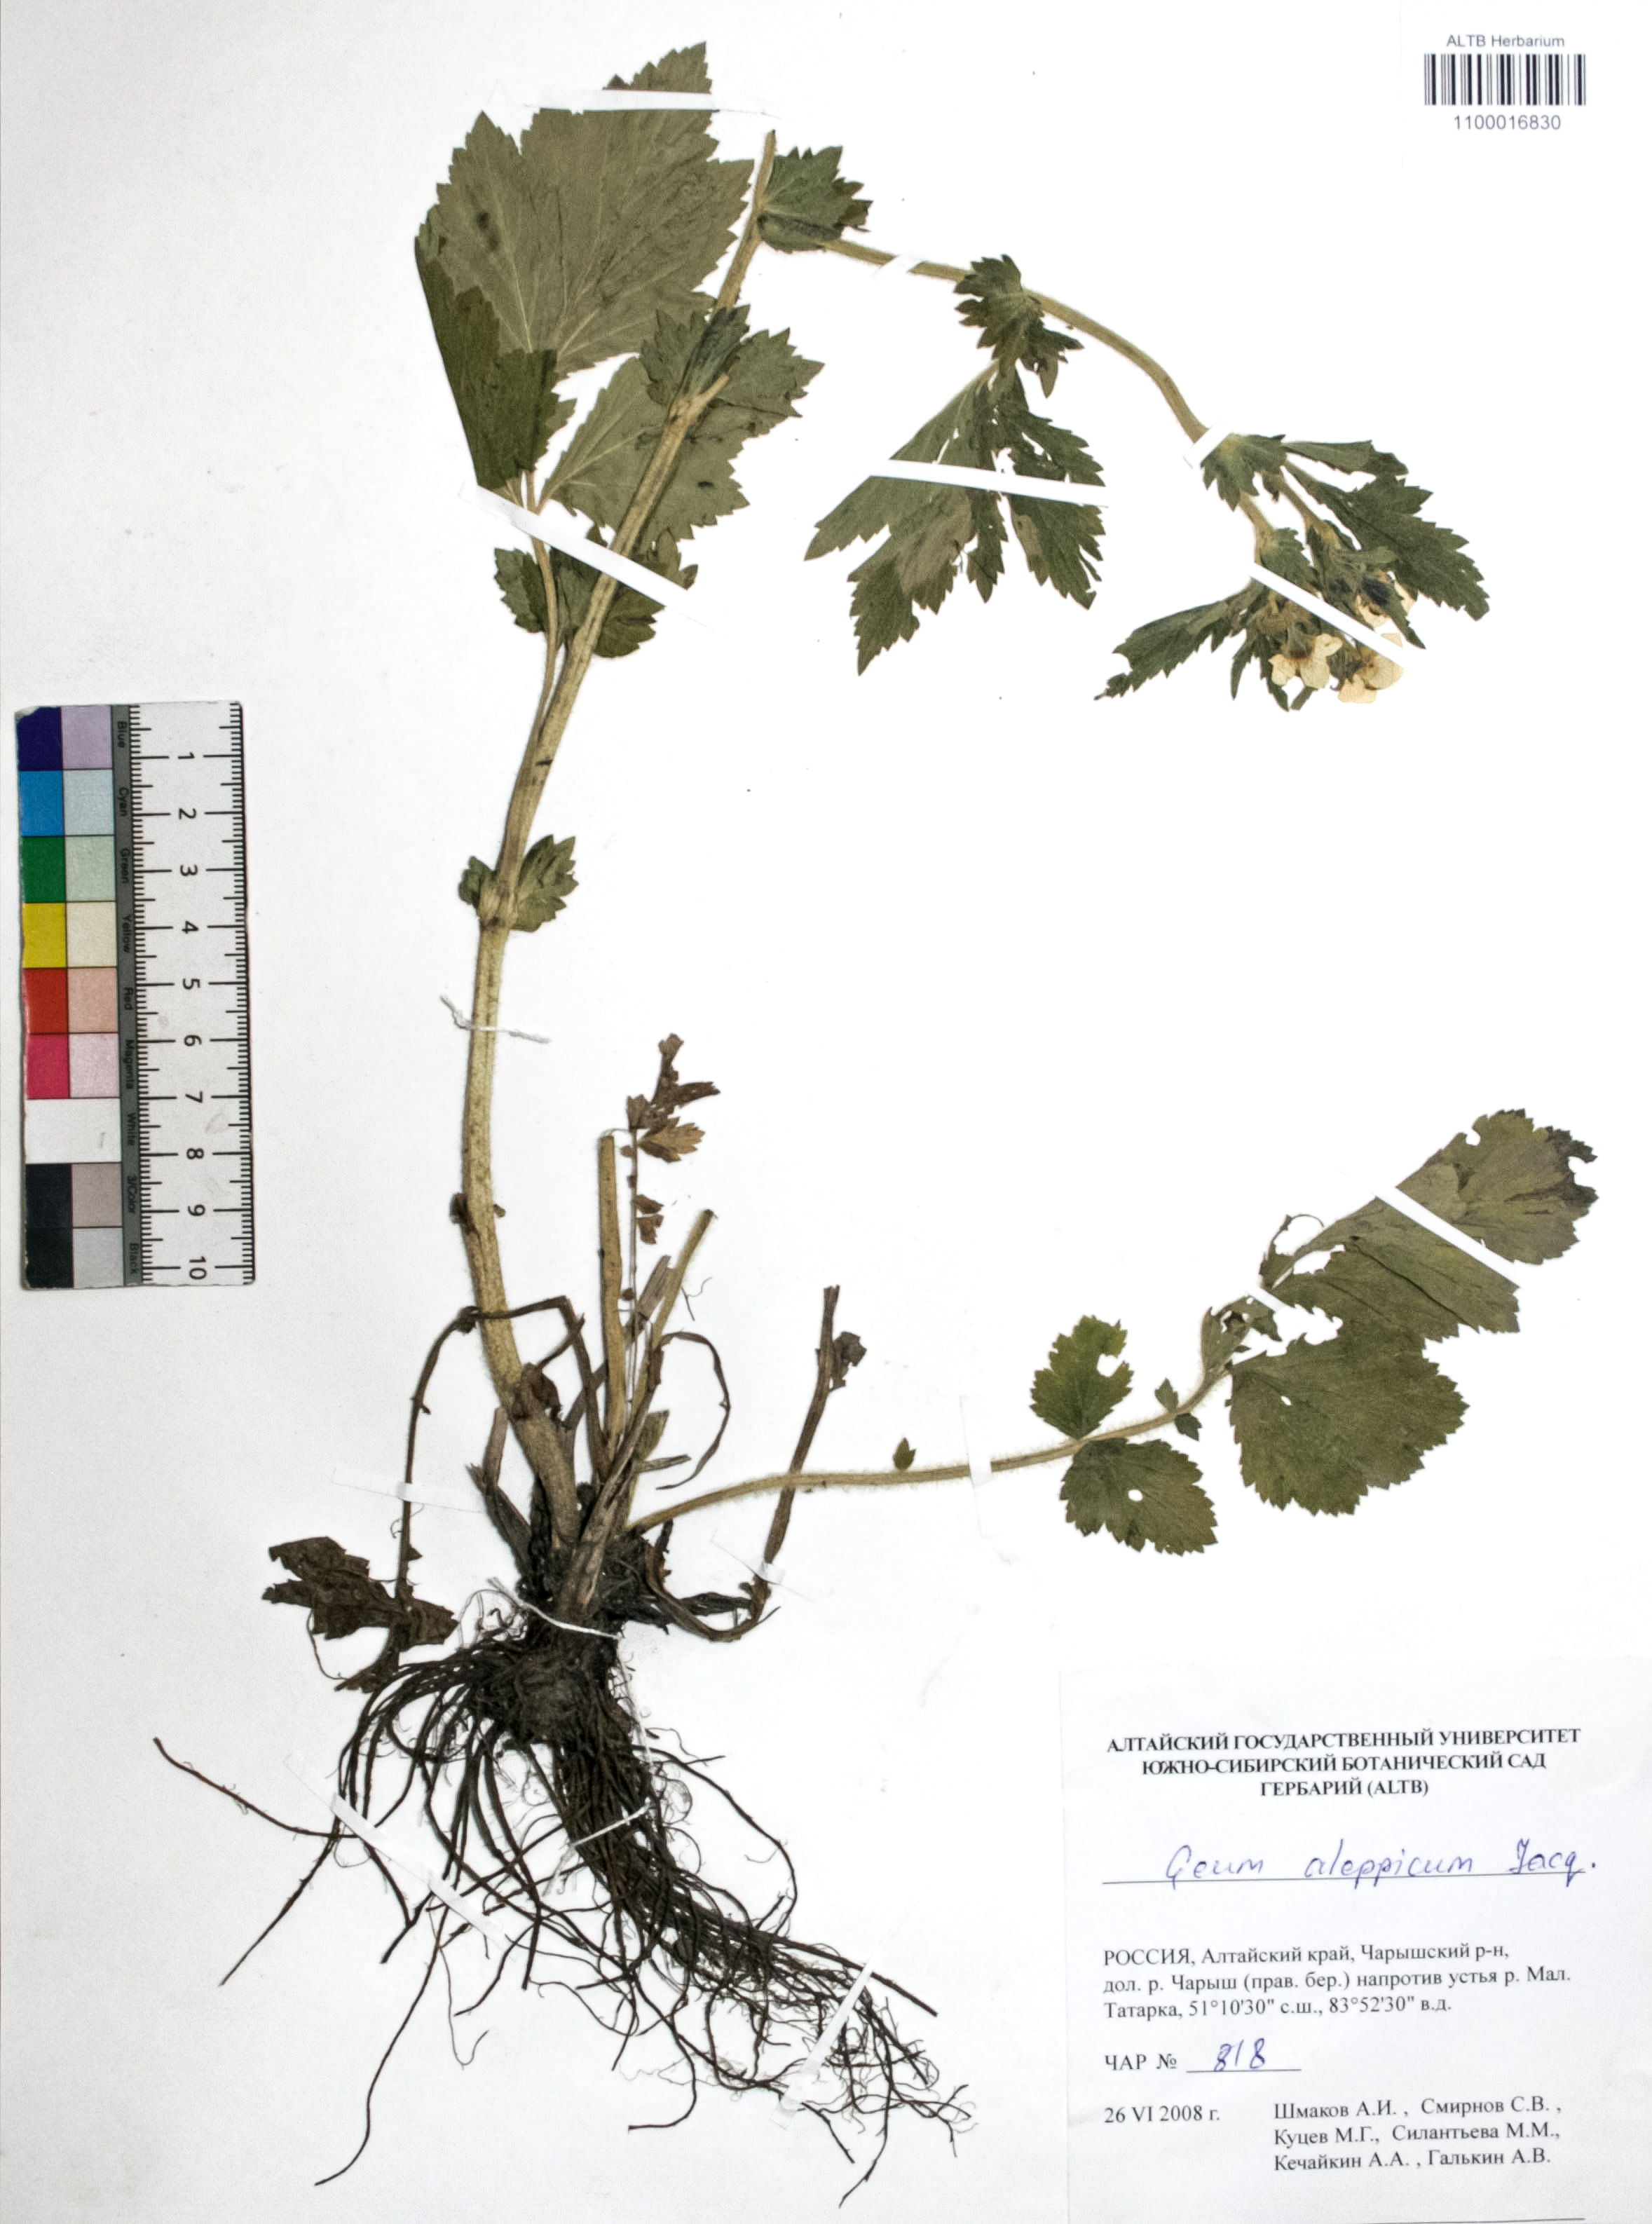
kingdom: Plantae
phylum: Tracheophyta
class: Magnoliopsida
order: Rosales
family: Rosaceae
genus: Geum
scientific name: Geum aleppicum
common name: Yellow avens
